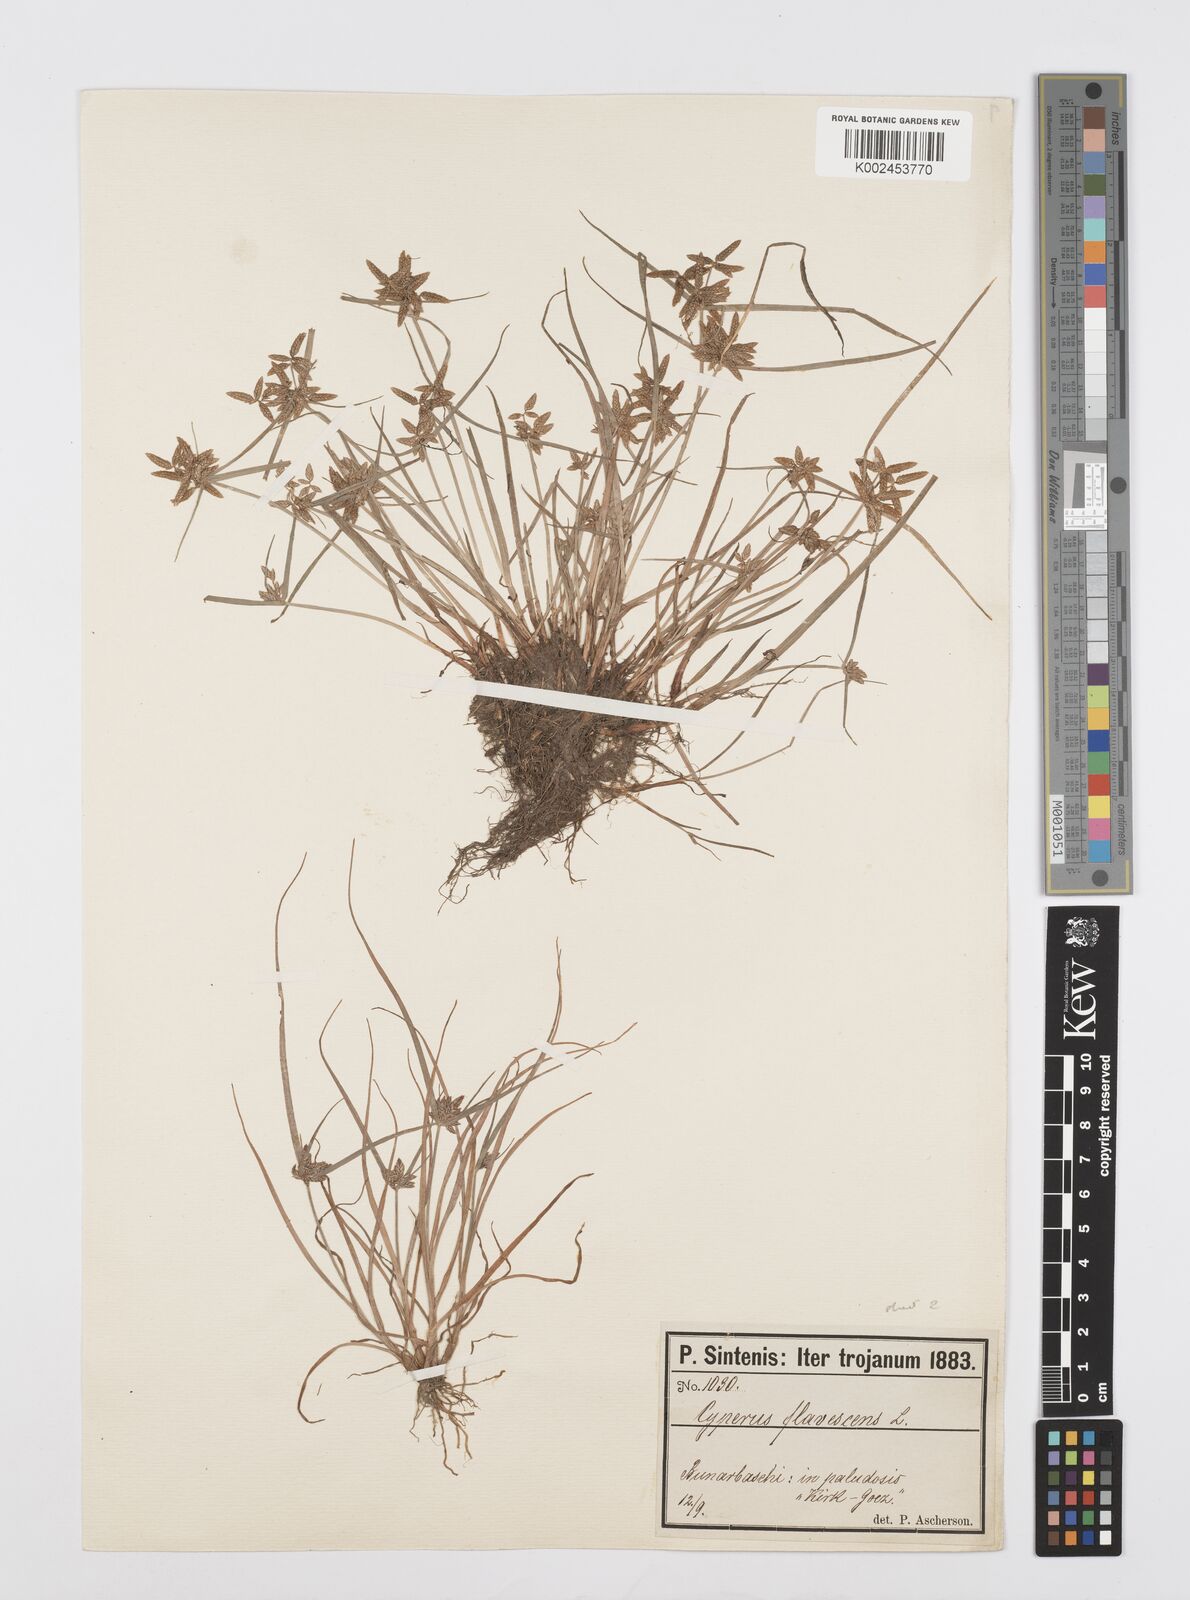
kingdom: Plantae
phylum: Tracheophyta
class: Liliopsida
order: Poales
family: Cyperaceae
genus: Cyperus
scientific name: Cyperus flavescens
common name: Yellow galingale
